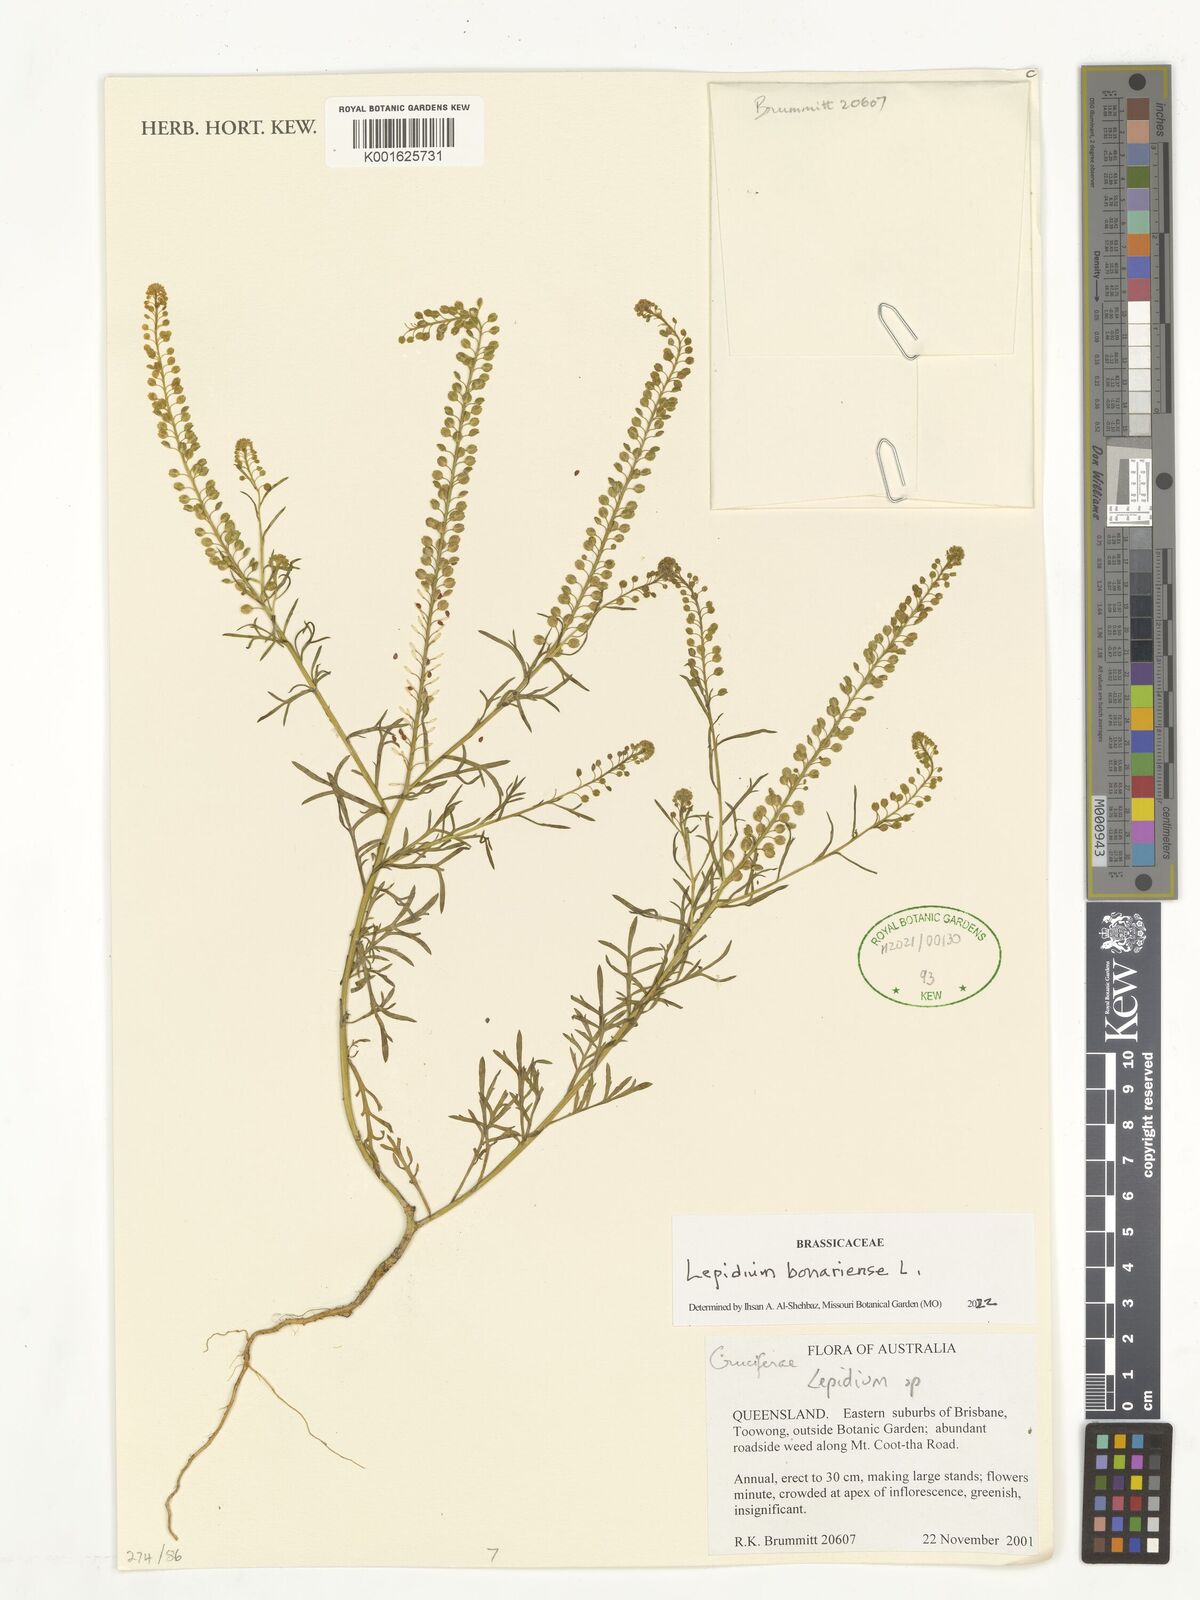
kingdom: Plantae
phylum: Tracheophyta
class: Magnoliopsida
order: Brassicales
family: Brassicaceae
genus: Lepidium
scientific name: Lepidium bonariense
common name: Argentine pepperwort
